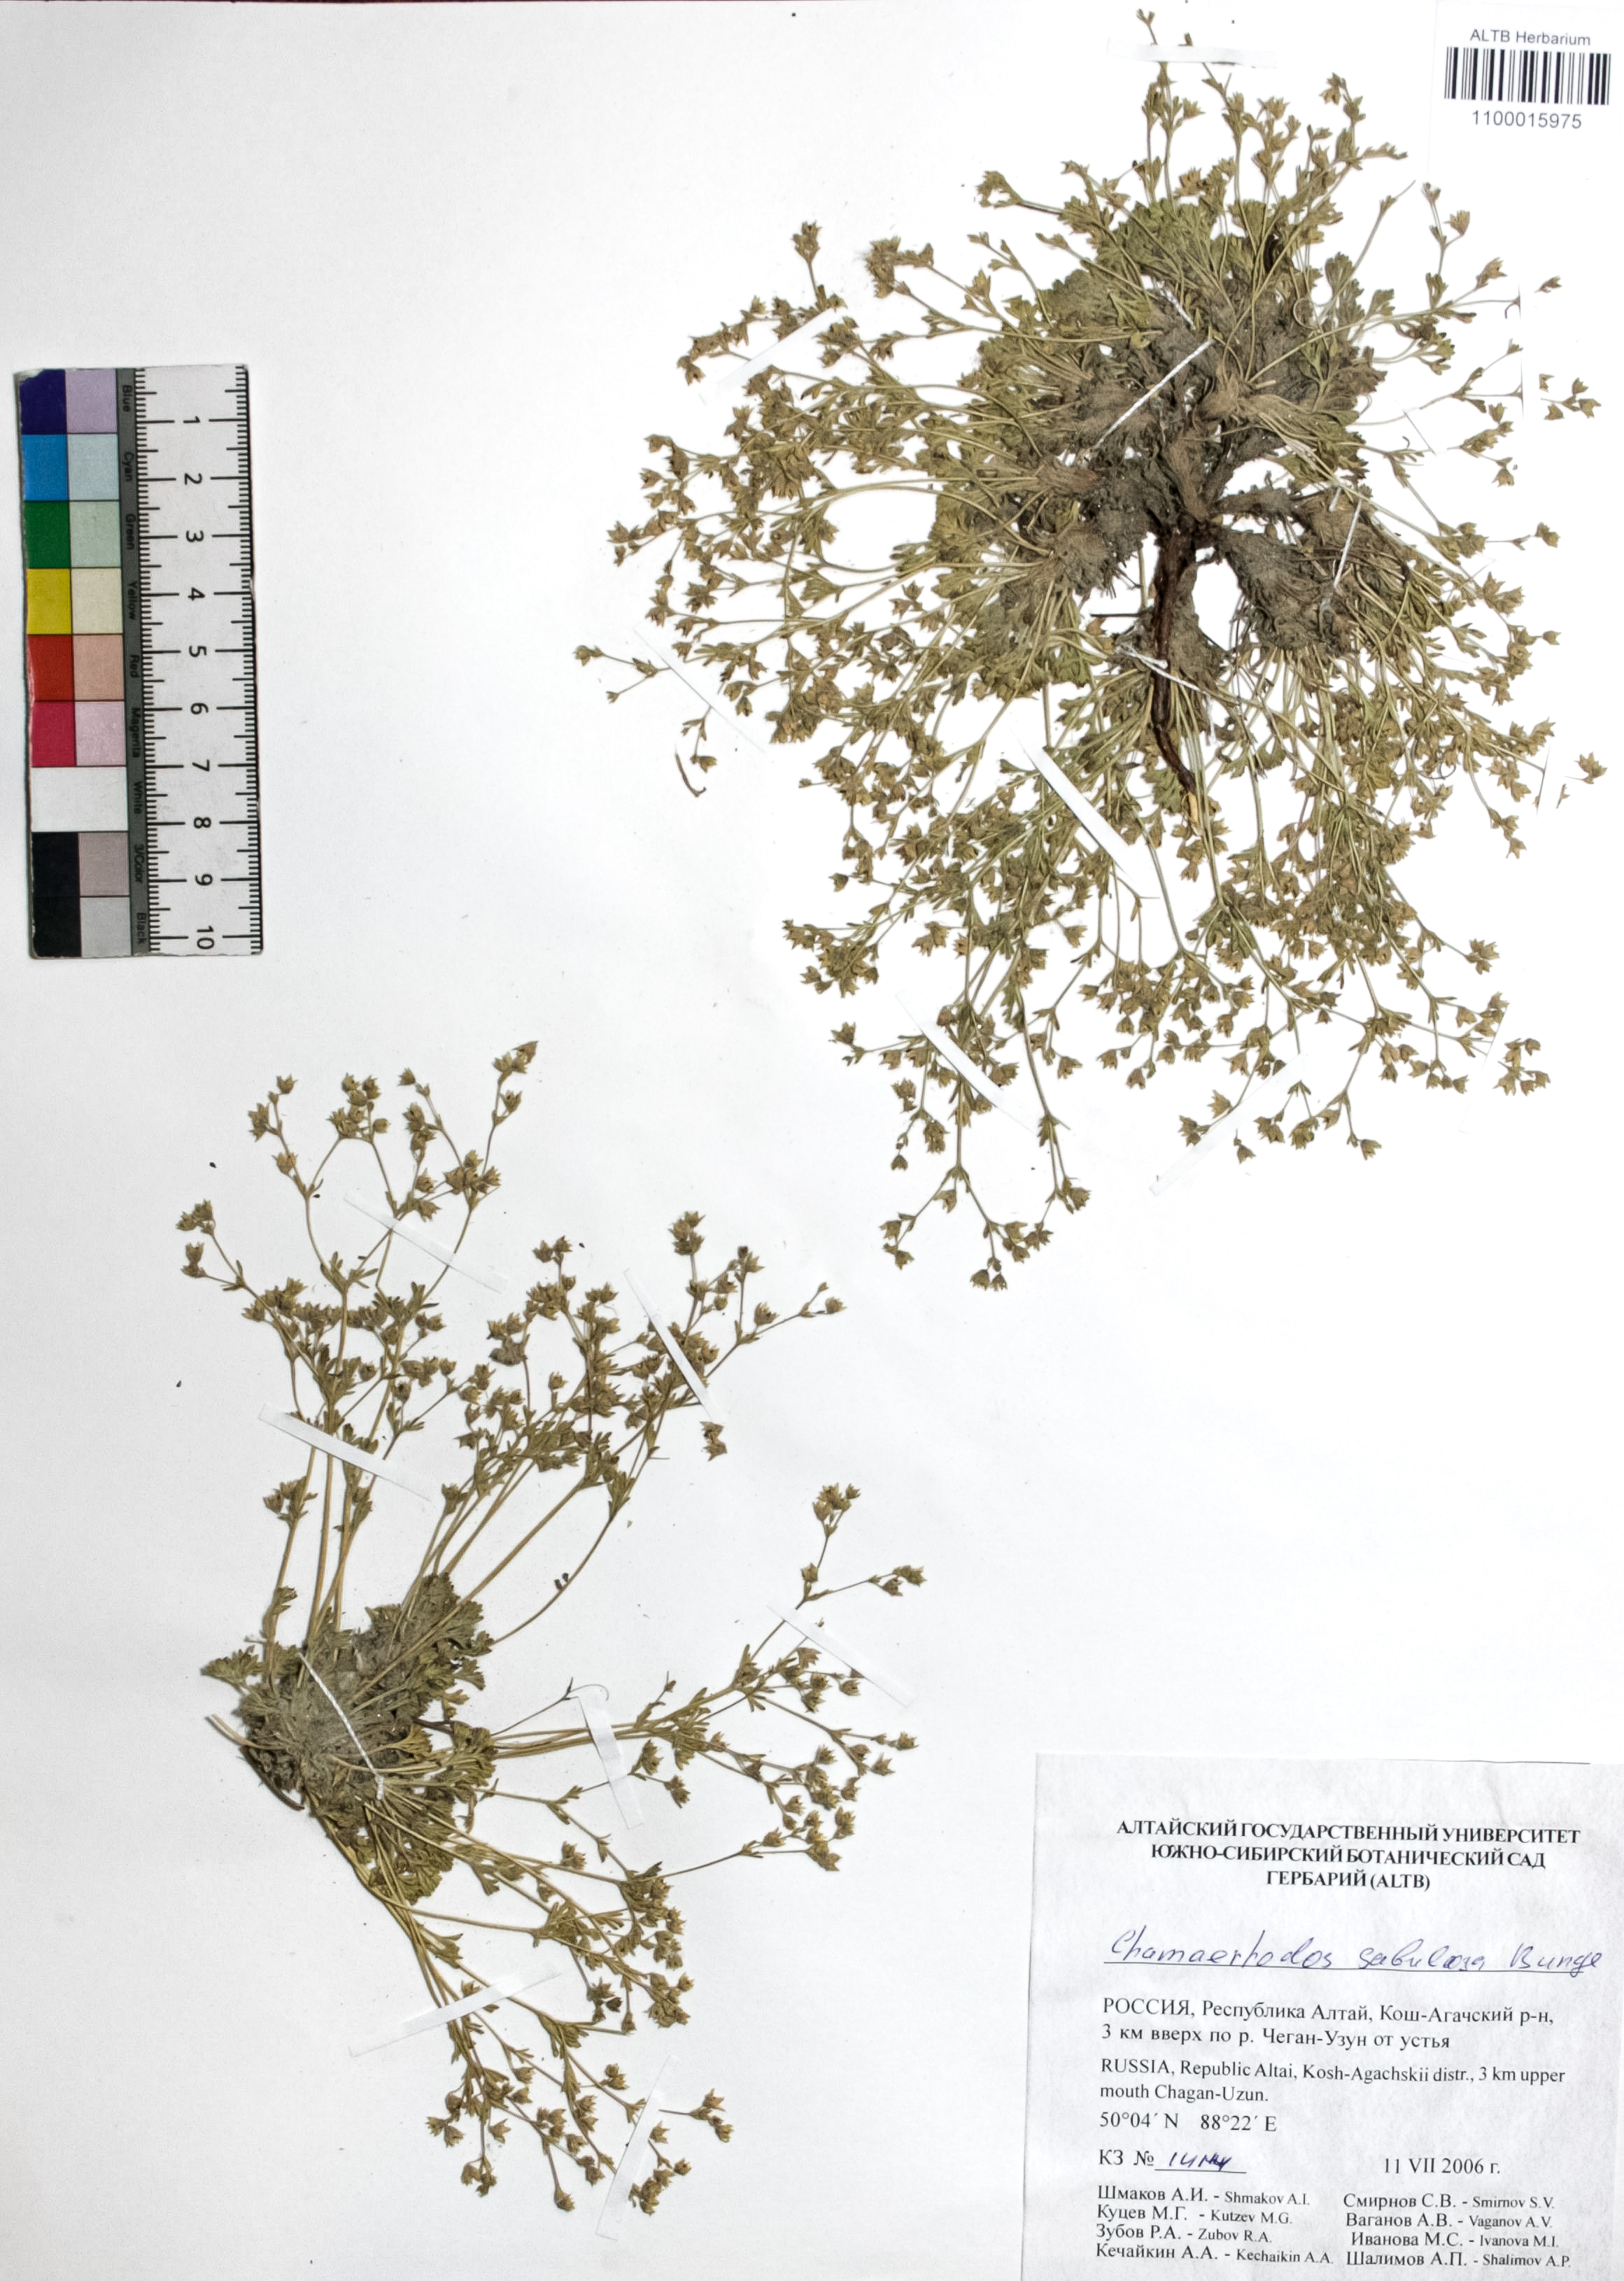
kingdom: Plantae
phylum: Tracheophyta
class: Magnoliopsida
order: Rosales
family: Rosaceae
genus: Chamaerhodos
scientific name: Chamaerhodos sabulosa
